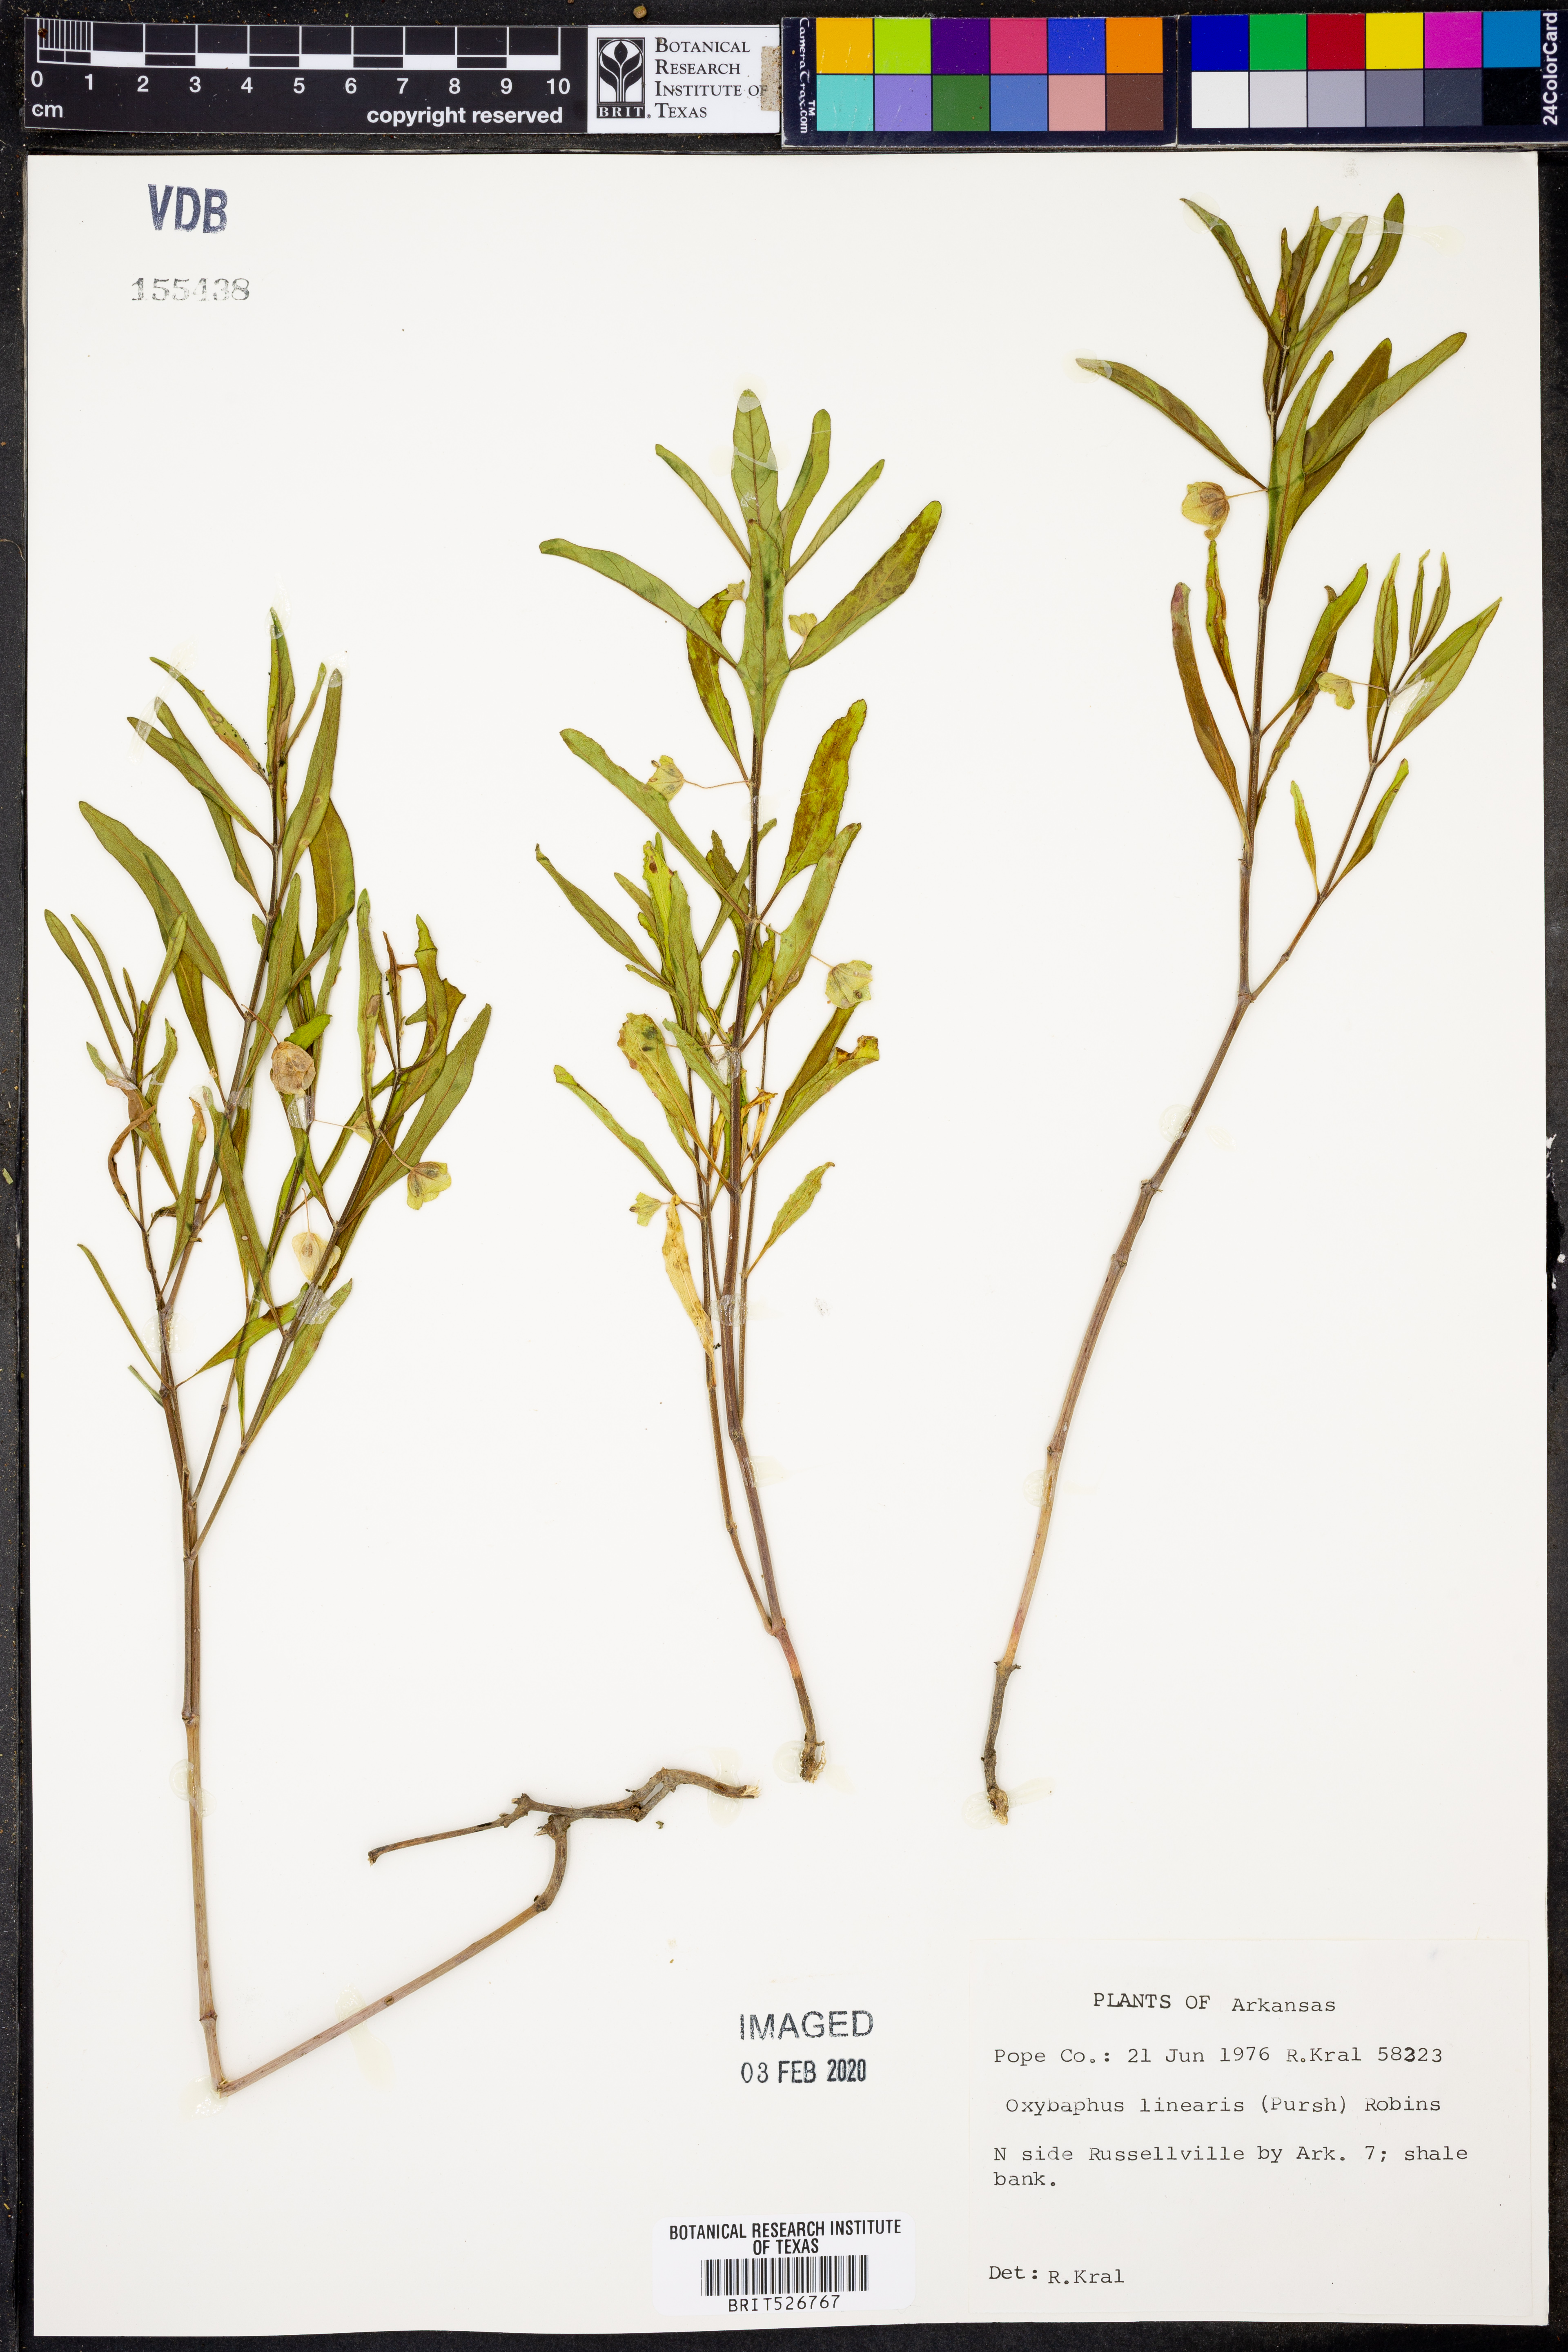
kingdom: Plantae
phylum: Tracheophyta
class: Magnoliopsida
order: Caryophyllales
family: Nyctaginaceae
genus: Mirabilis
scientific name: Mirabilis linearis
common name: Linear-leaved four-o'clock
